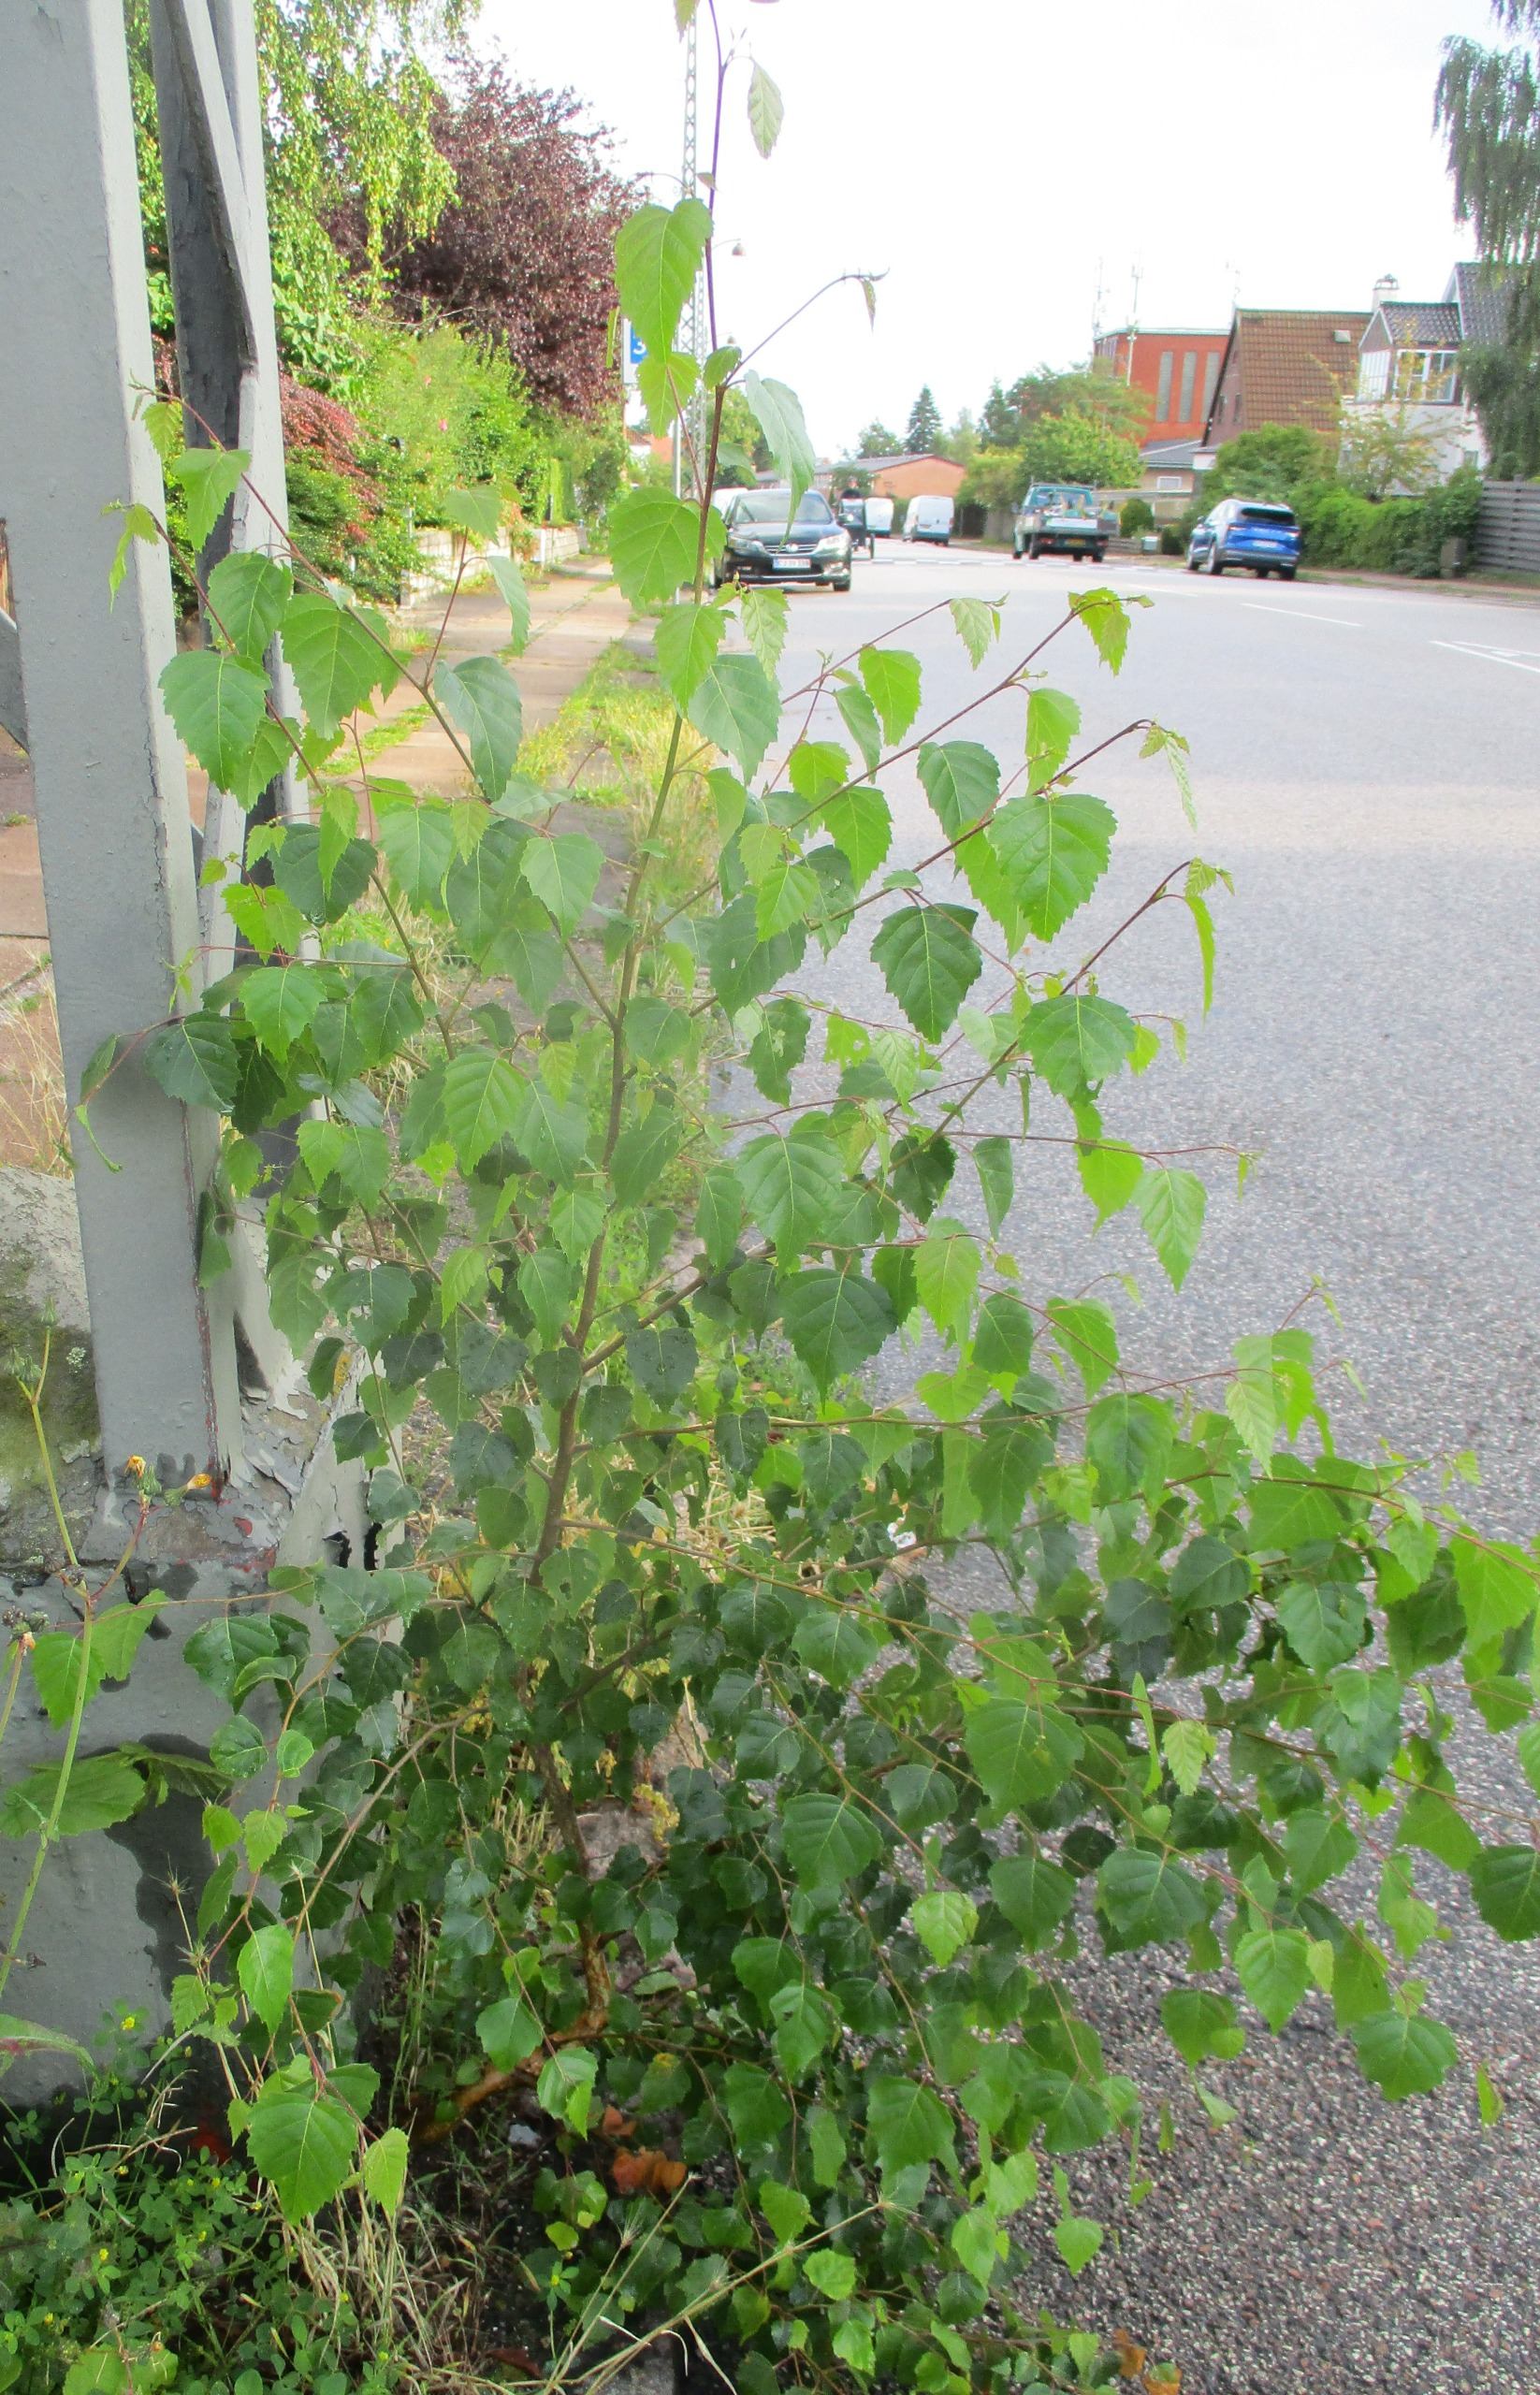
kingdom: Plantae
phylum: Tracheophyta
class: Magnoliopsida
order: Fagales
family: Betulaceae
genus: Betula
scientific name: Betula pendula
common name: Vorte-birk
